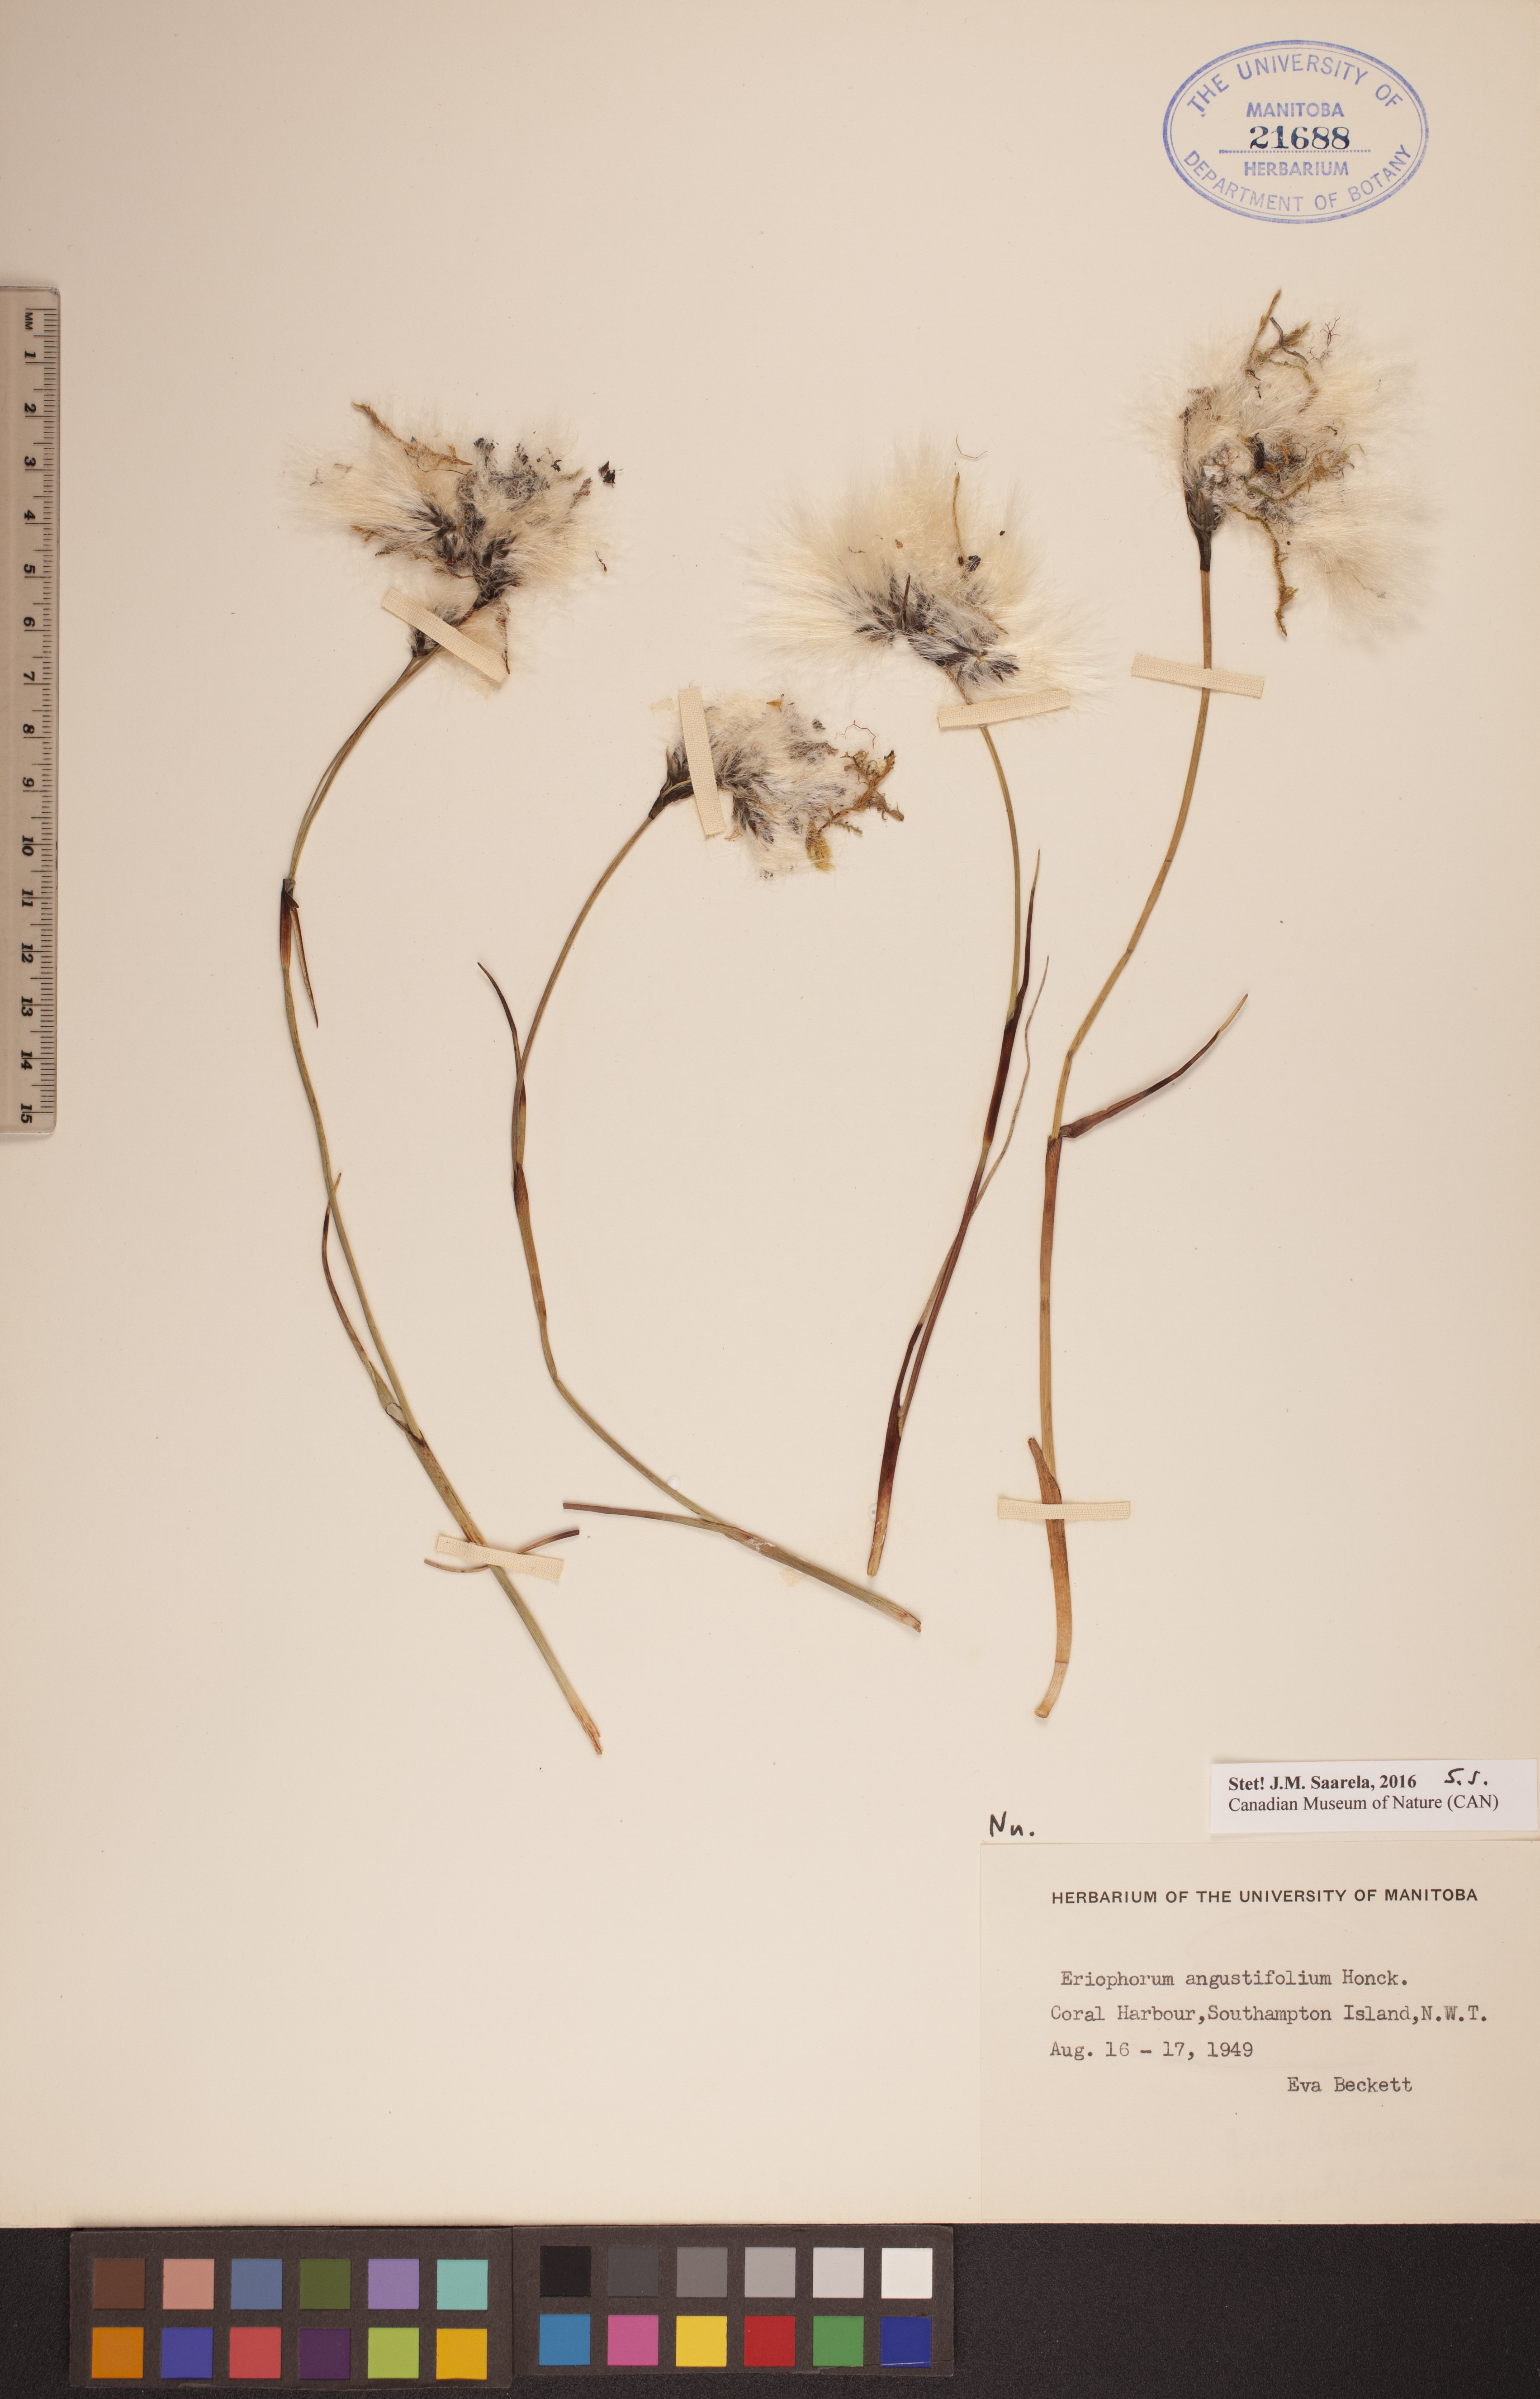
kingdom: Plantae
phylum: Tracheophyta
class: Liliopsida
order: Poales
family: Cyperaceae
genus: Eriophorum
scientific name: Eriophorum angustifolium
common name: Common cottongrass
